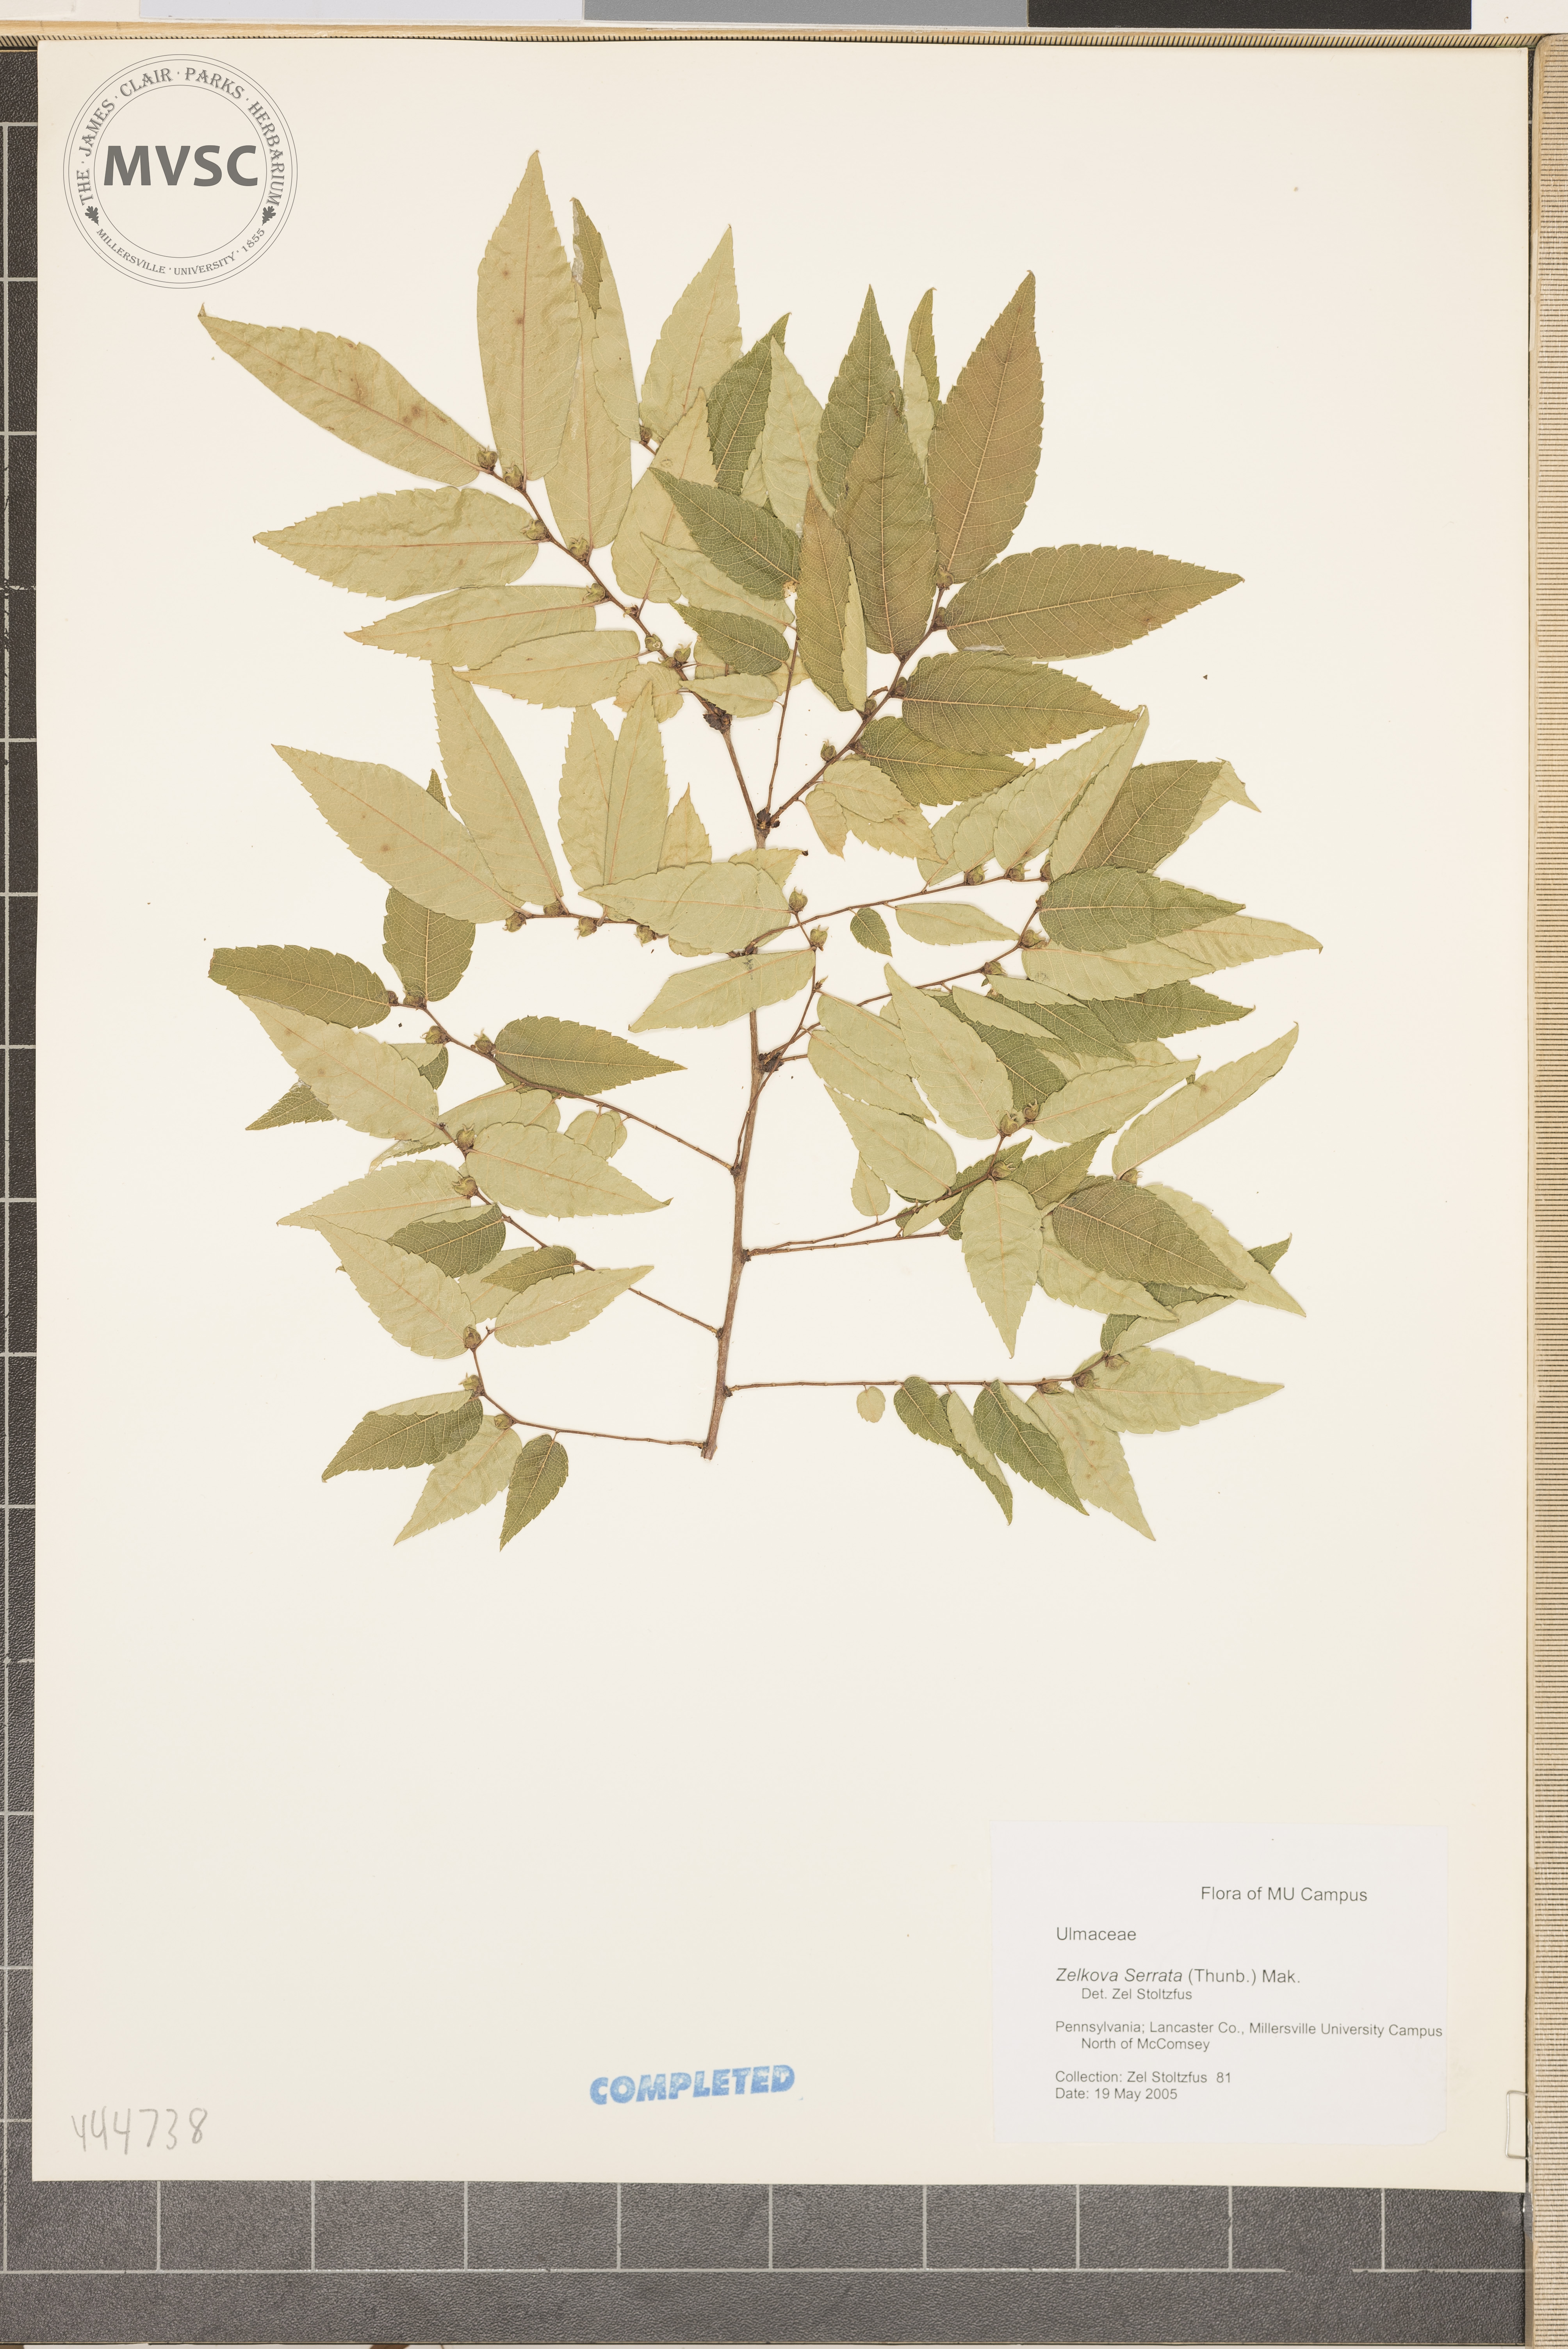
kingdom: Plantae
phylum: Tracheophyta
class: Magnoliopsida
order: Rosales
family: Ulmaceae
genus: Zelkova
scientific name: Zelkova serrata
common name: Japanese zelkova
